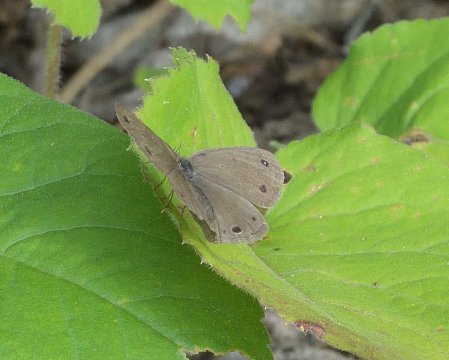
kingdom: Animalia
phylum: Arthropoda
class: Insecta
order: Lepidoptera
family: Nymphalidae
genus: Euptychia
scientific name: Euptychia cymela
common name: Little Wood Satyr
